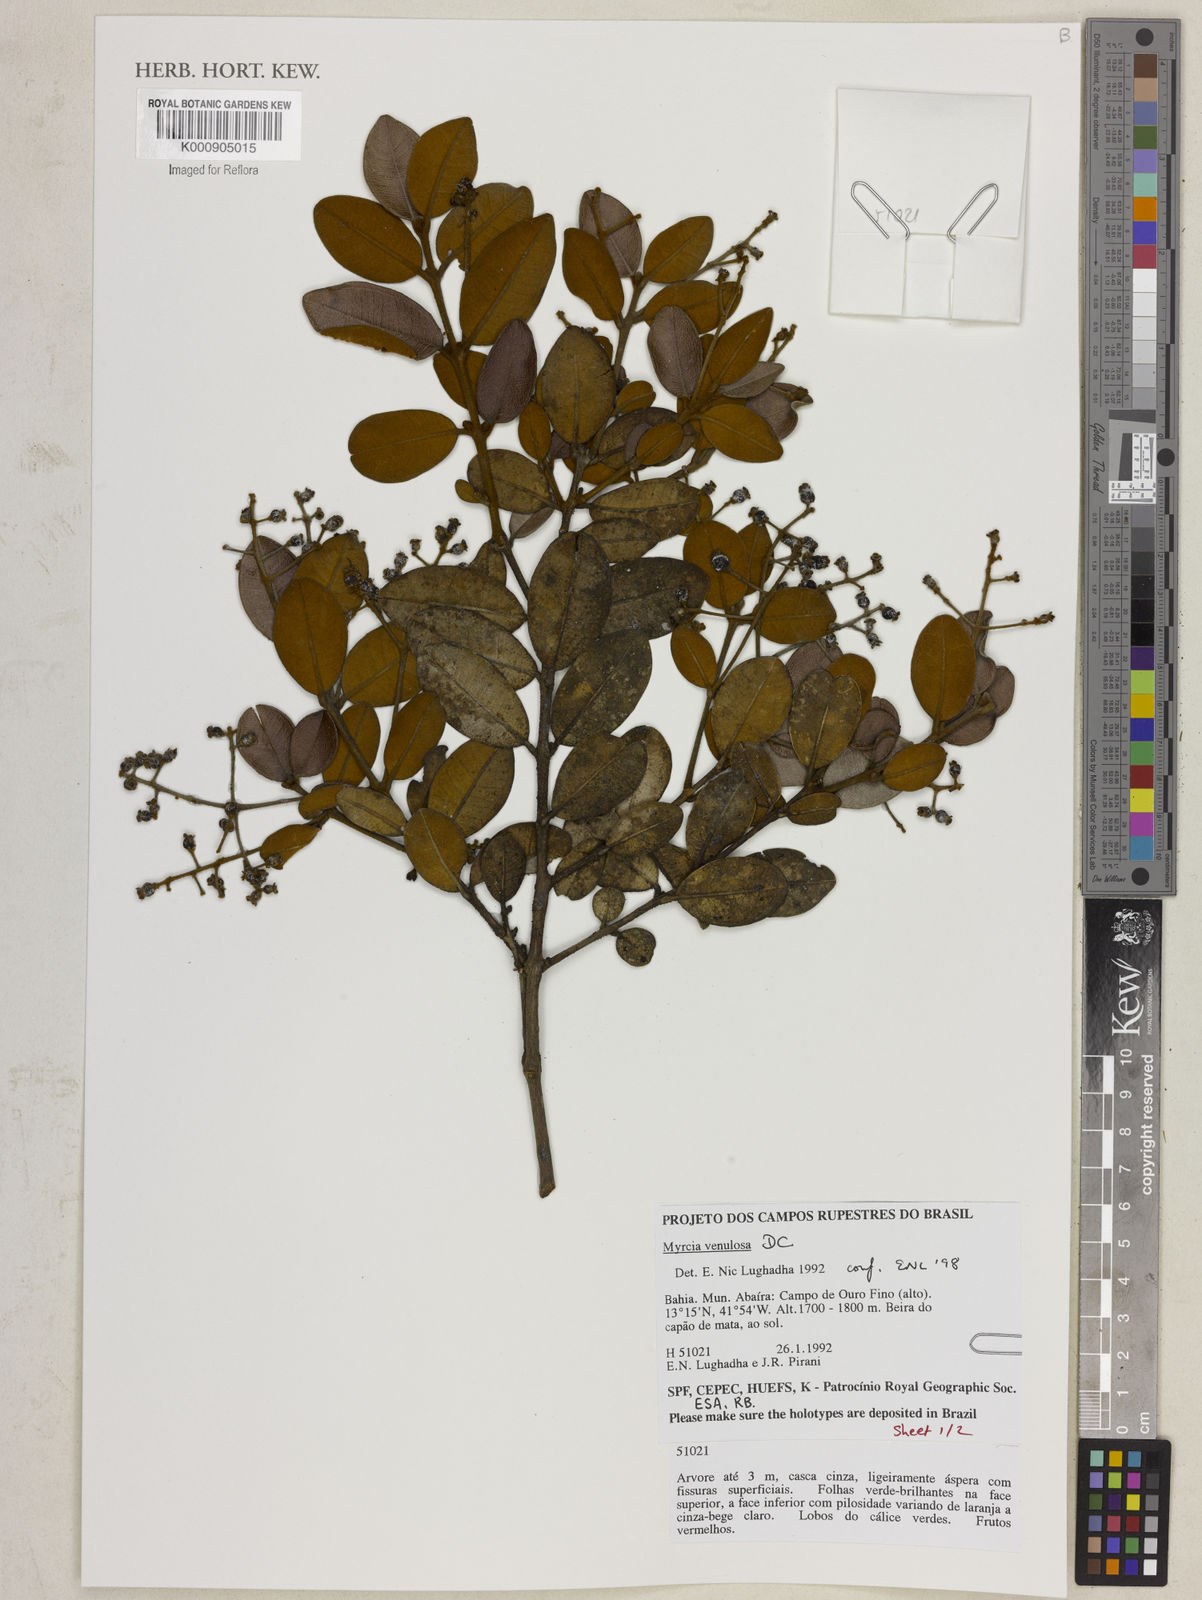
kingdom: Plantae
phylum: Tracheophyta
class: Magnoliopsida
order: Myrtales
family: Myrtaceae
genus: Myrcia
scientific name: Myrcia venulosa
